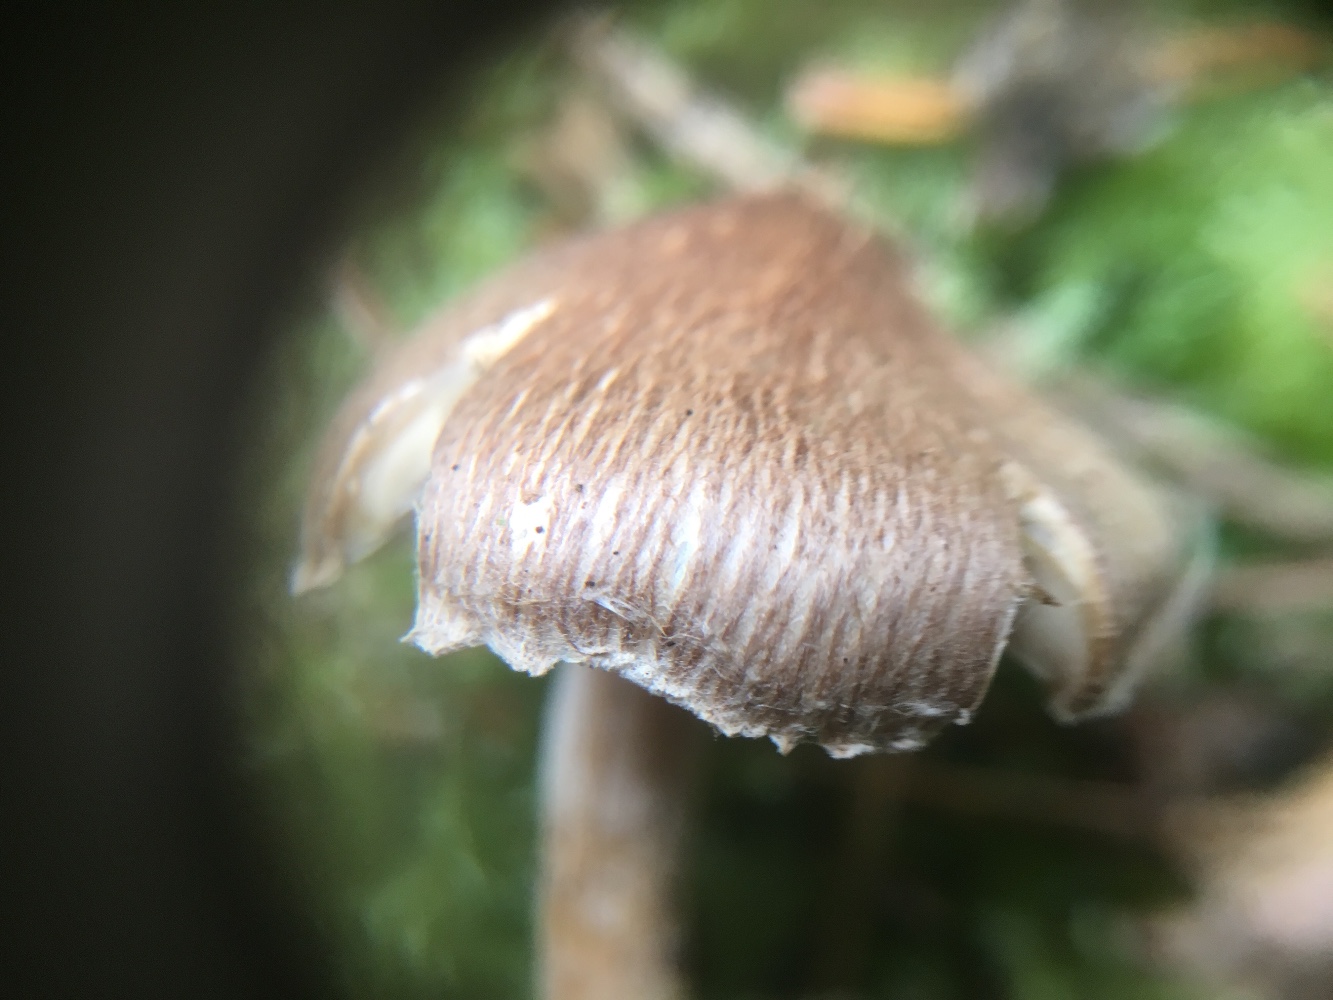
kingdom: Fungi
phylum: Basidiomycota
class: Agaricomycetes
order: Agaricales
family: Inocybaceae
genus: Inocybe
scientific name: Inocybe
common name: trævlhat
